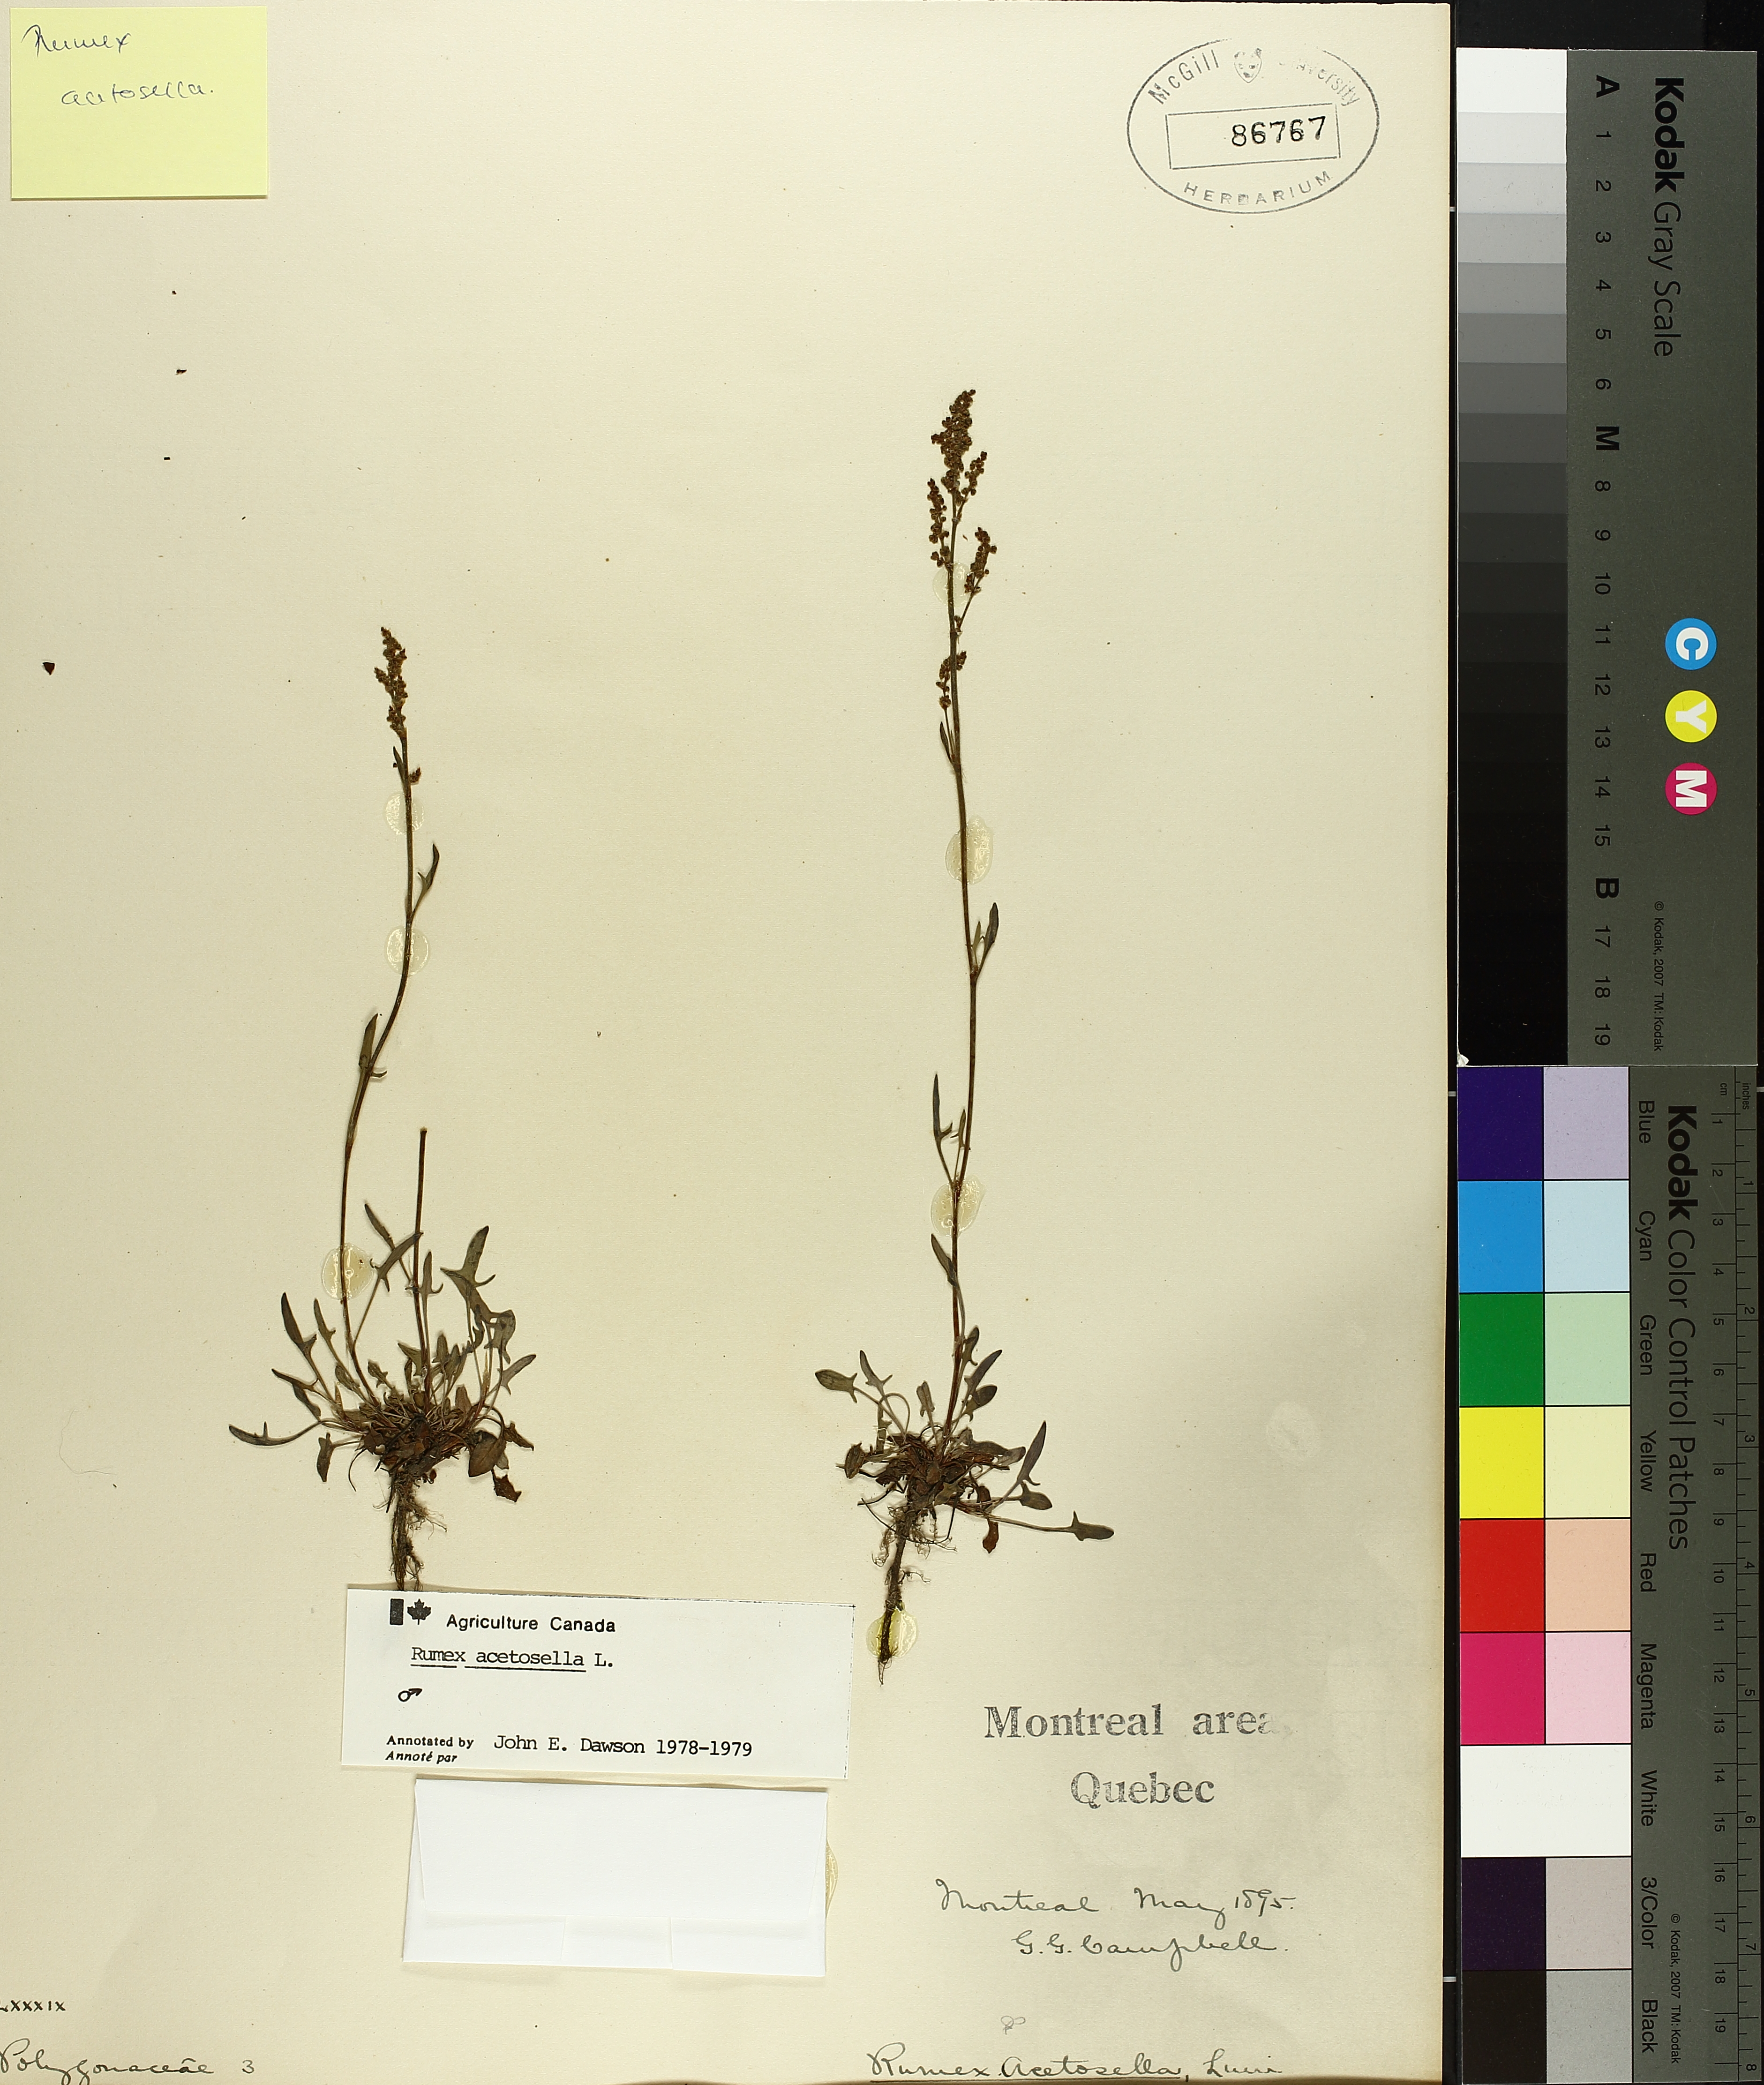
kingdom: Plantae
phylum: Tracheophyta
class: Magnoliopsida
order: Caryophyllales
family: Polygonaceae
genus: Rumex
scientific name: Rumex acetosella
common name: Common sheep sorrel
